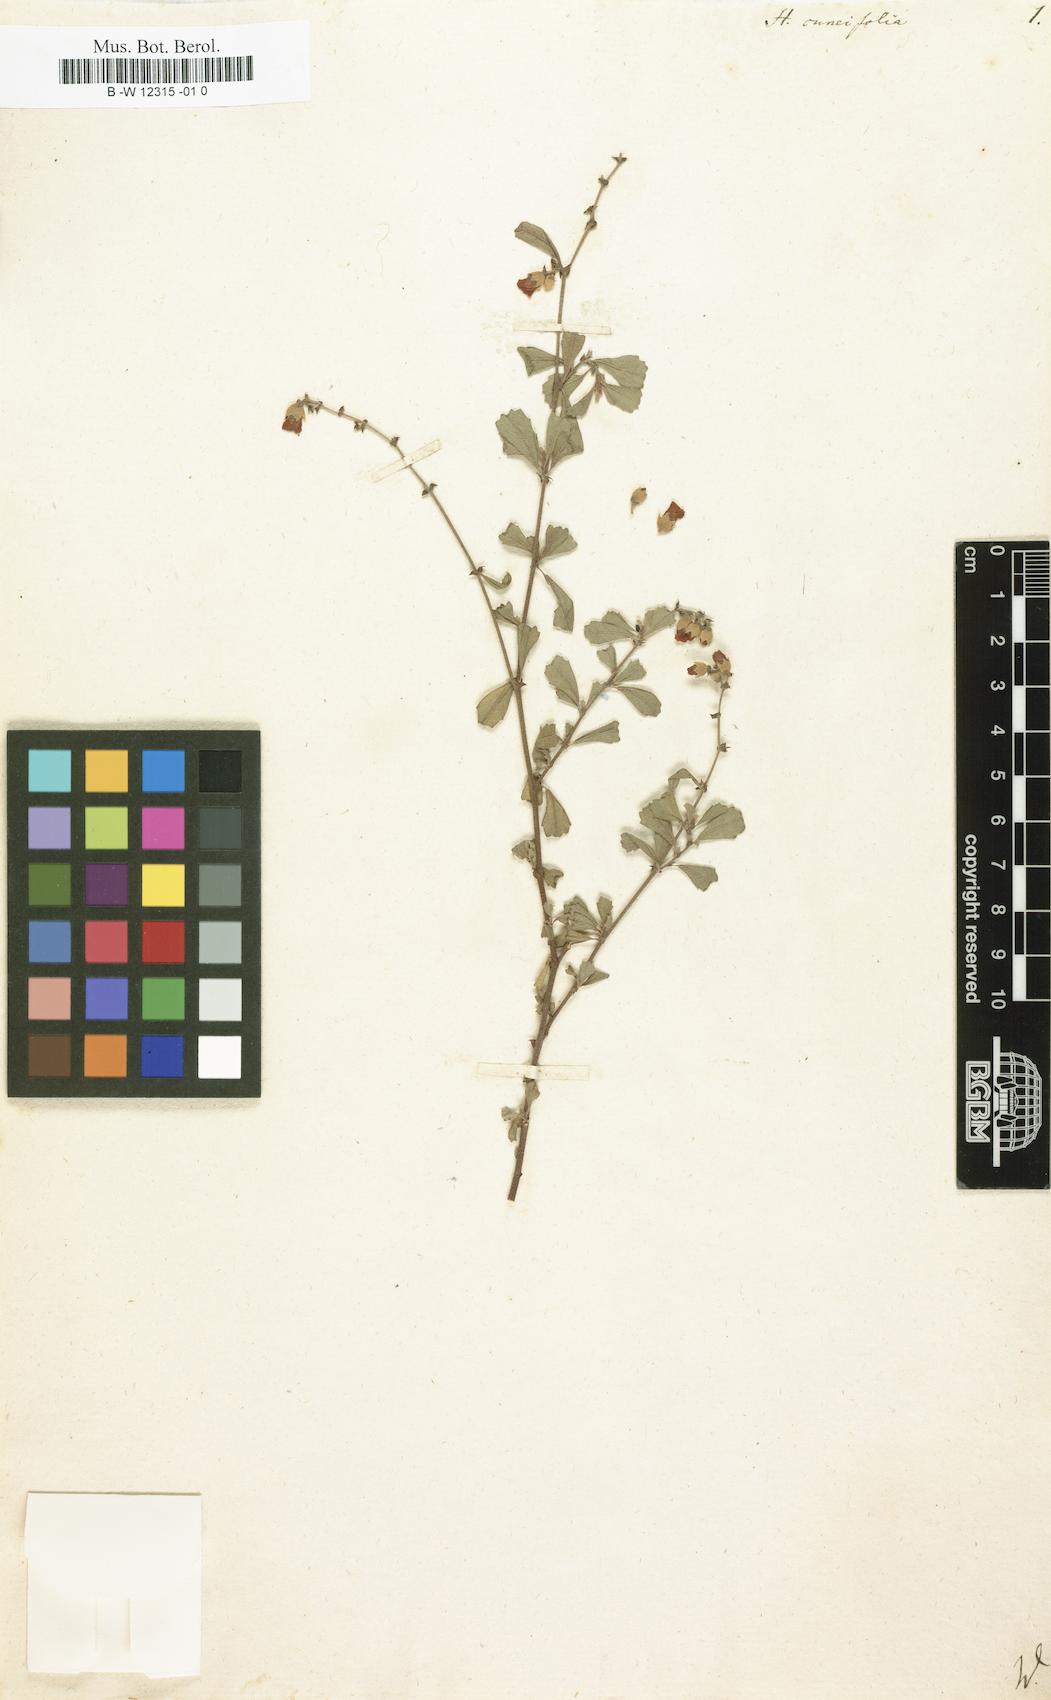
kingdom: Plantae
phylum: Tracheophyta
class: Magnoliopsida
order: Malvales
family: Malvaceae
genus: Hermannia
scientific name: Hermannia cuneifolia
